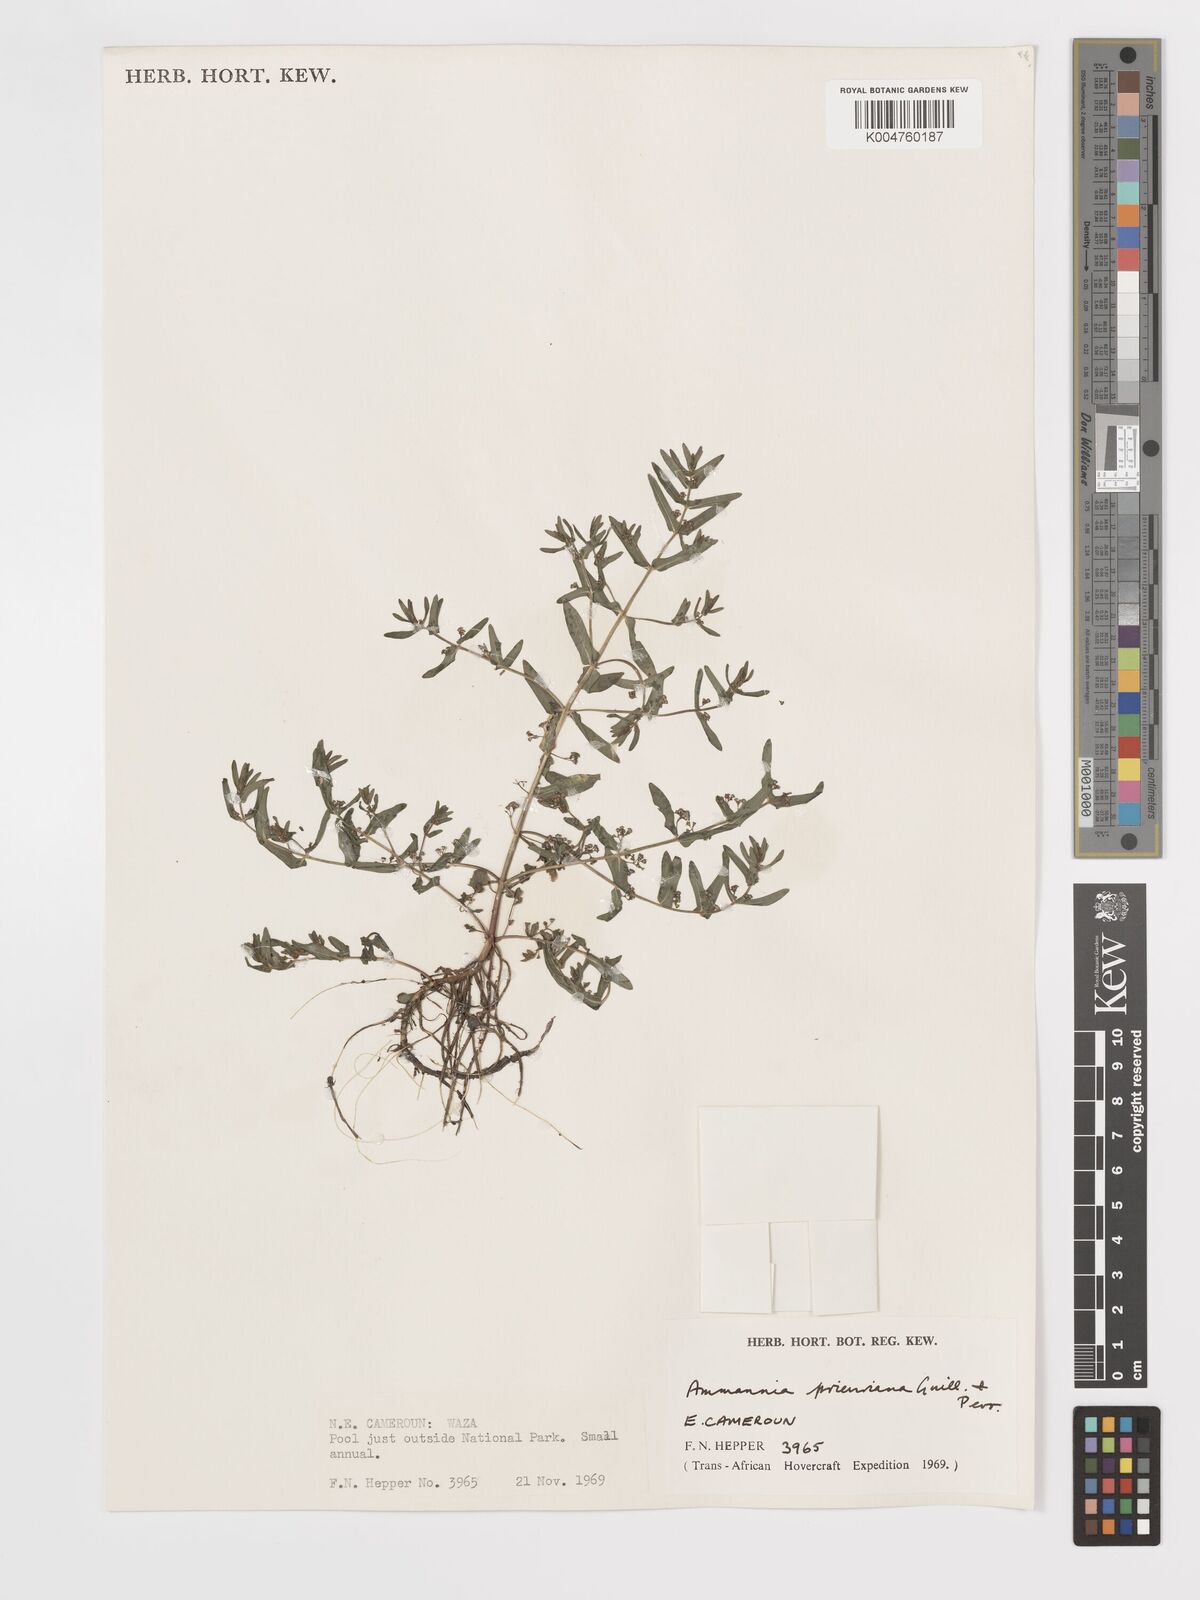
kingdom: Plantae
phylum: Tracheophyta
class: Magnoliopsida
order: Myrtales
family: Lythraceae
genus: Ammannia
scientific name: Ammannia prieuriana
